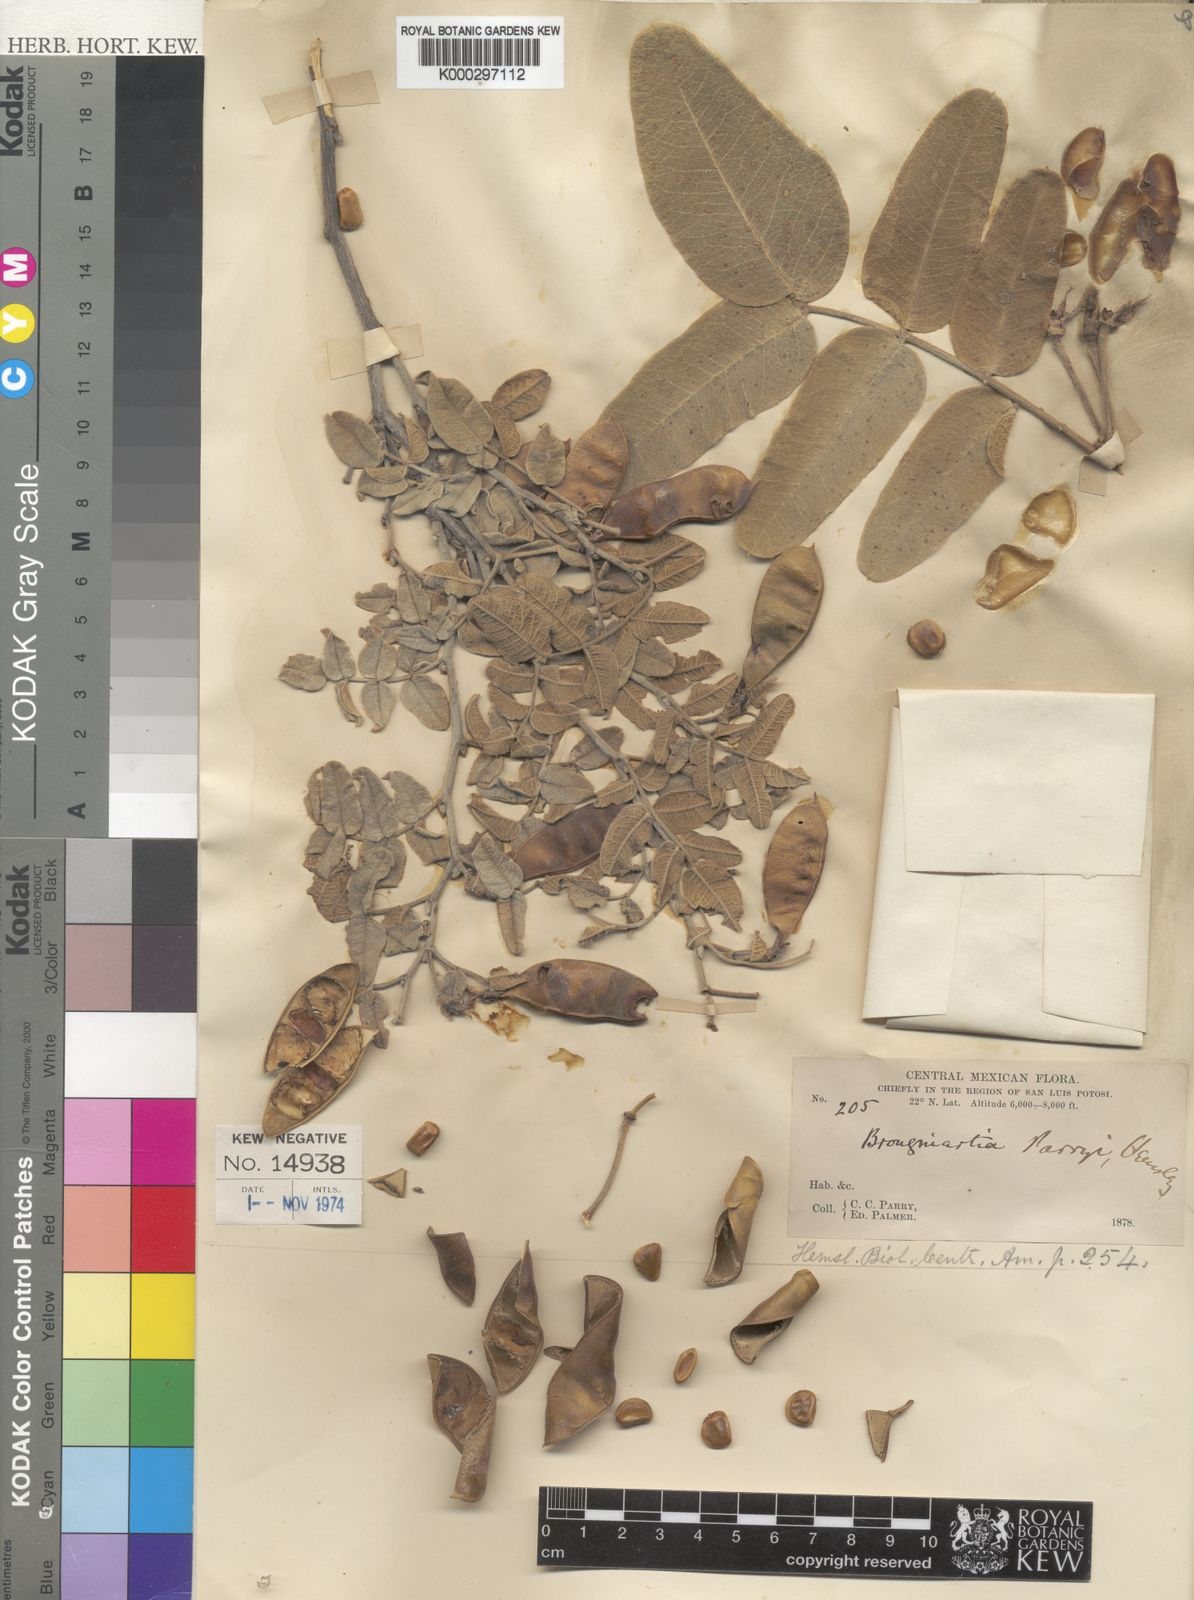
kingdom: Plantae
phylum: Tracheophyta
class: Magnoliopsida
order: Fabales
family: Fabaceae
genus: Brongniartia
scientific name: Brongniartia parryi
